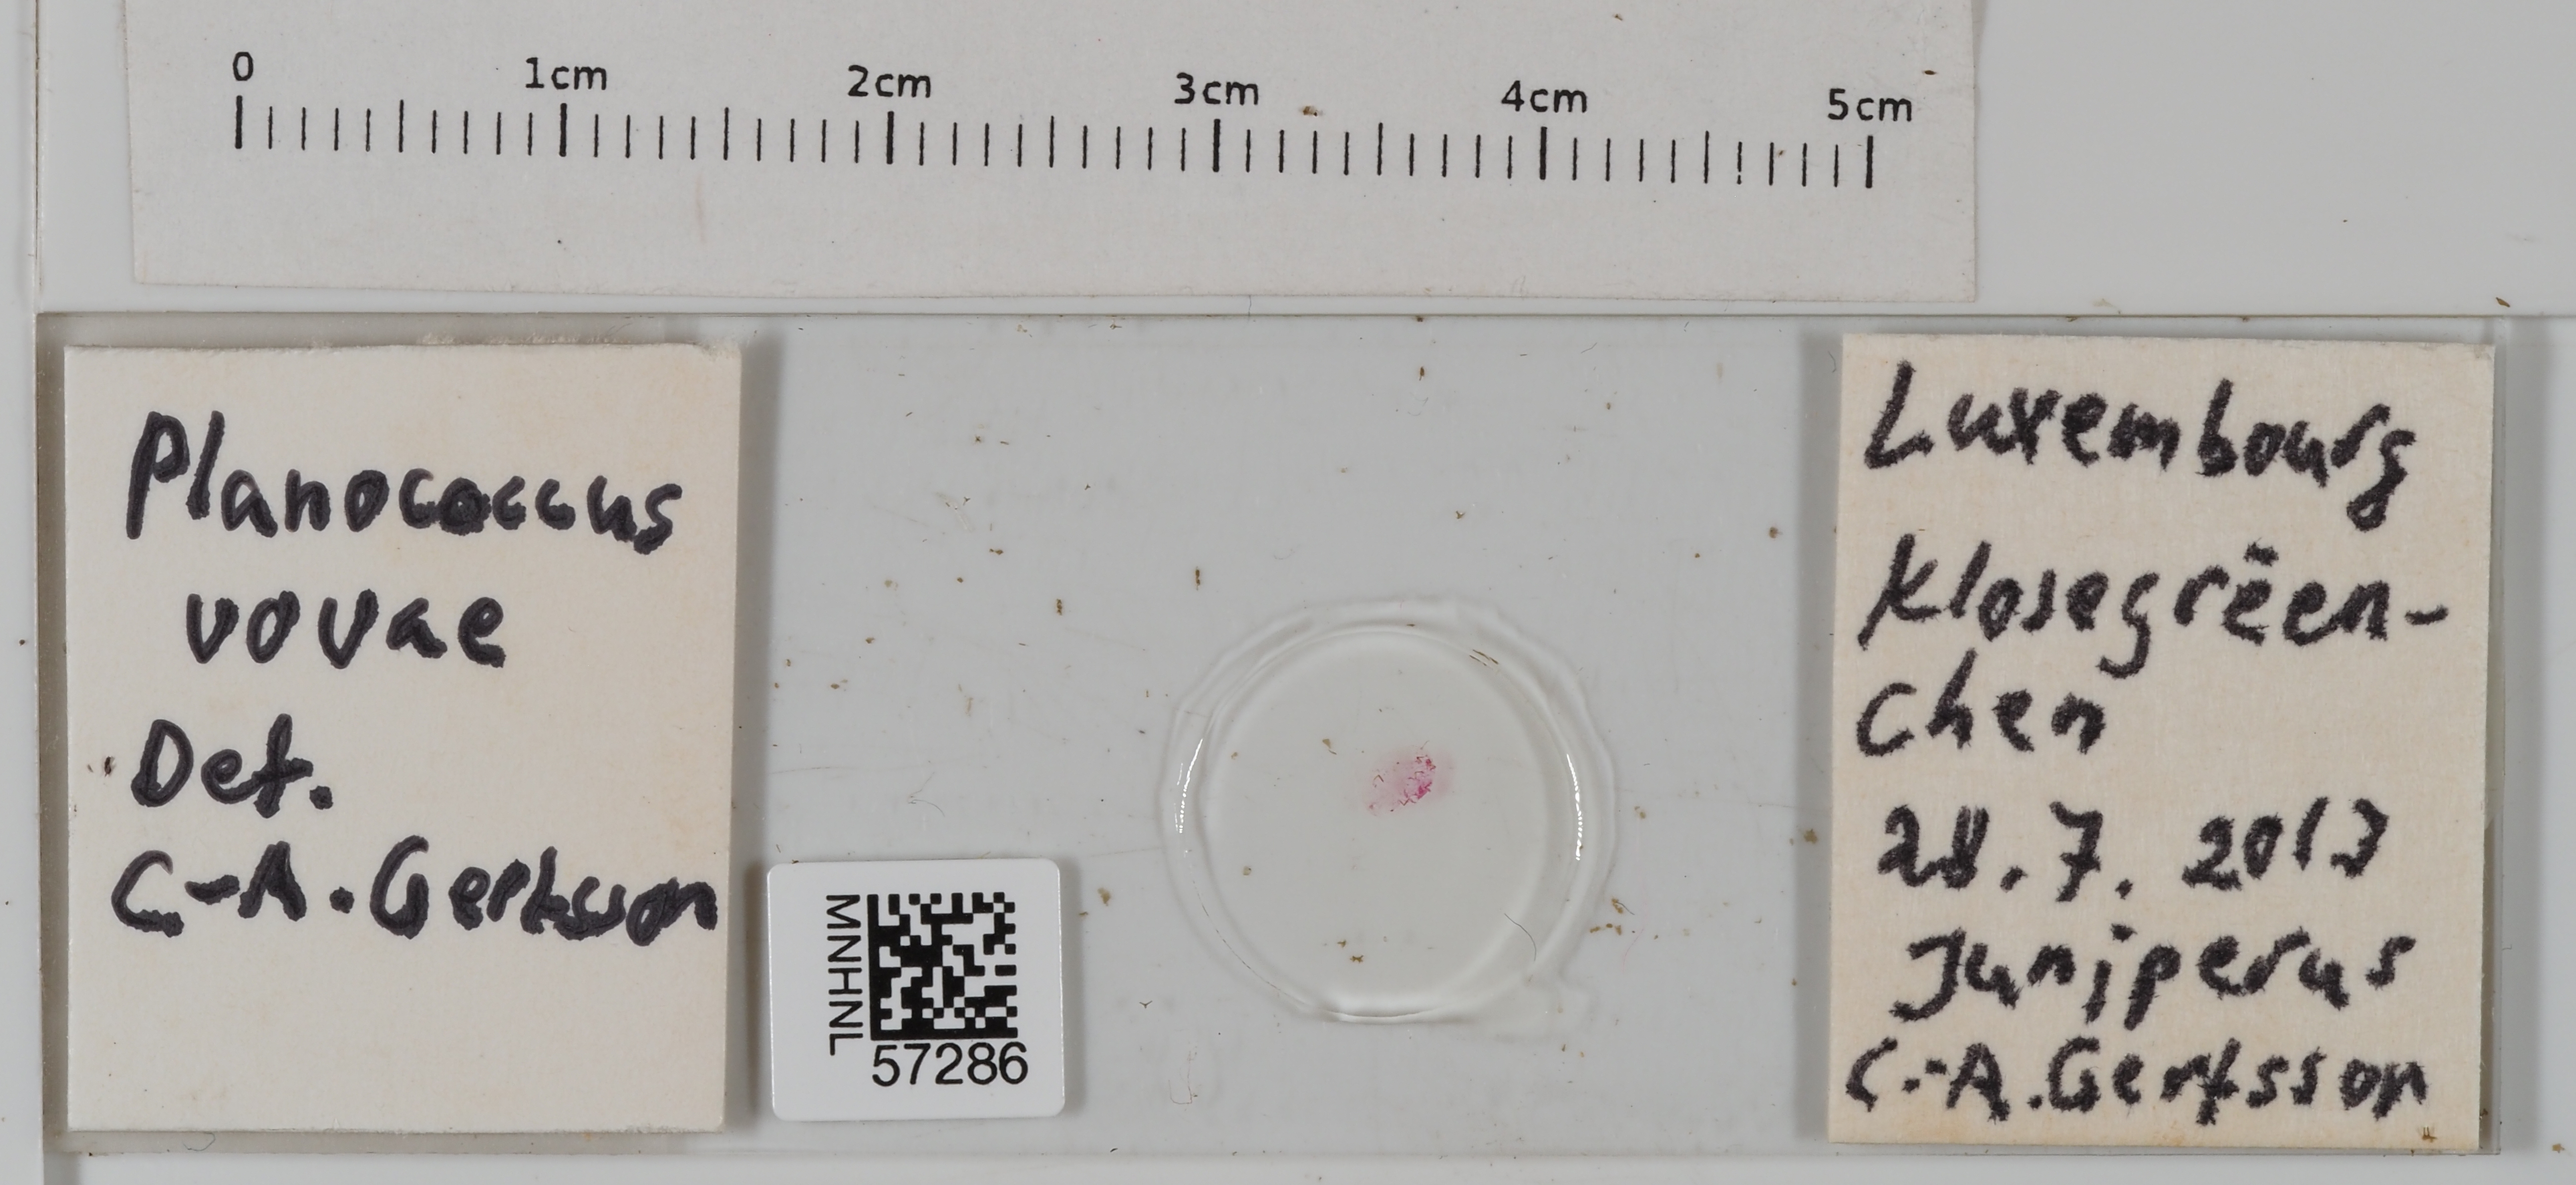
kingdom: Animalia
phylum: Arthropoda
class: Insecta
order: Hemiptera
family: Pseudococcidae
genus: Planococcus
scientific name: Planococcus vovae
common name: Nassonov's mealybug
